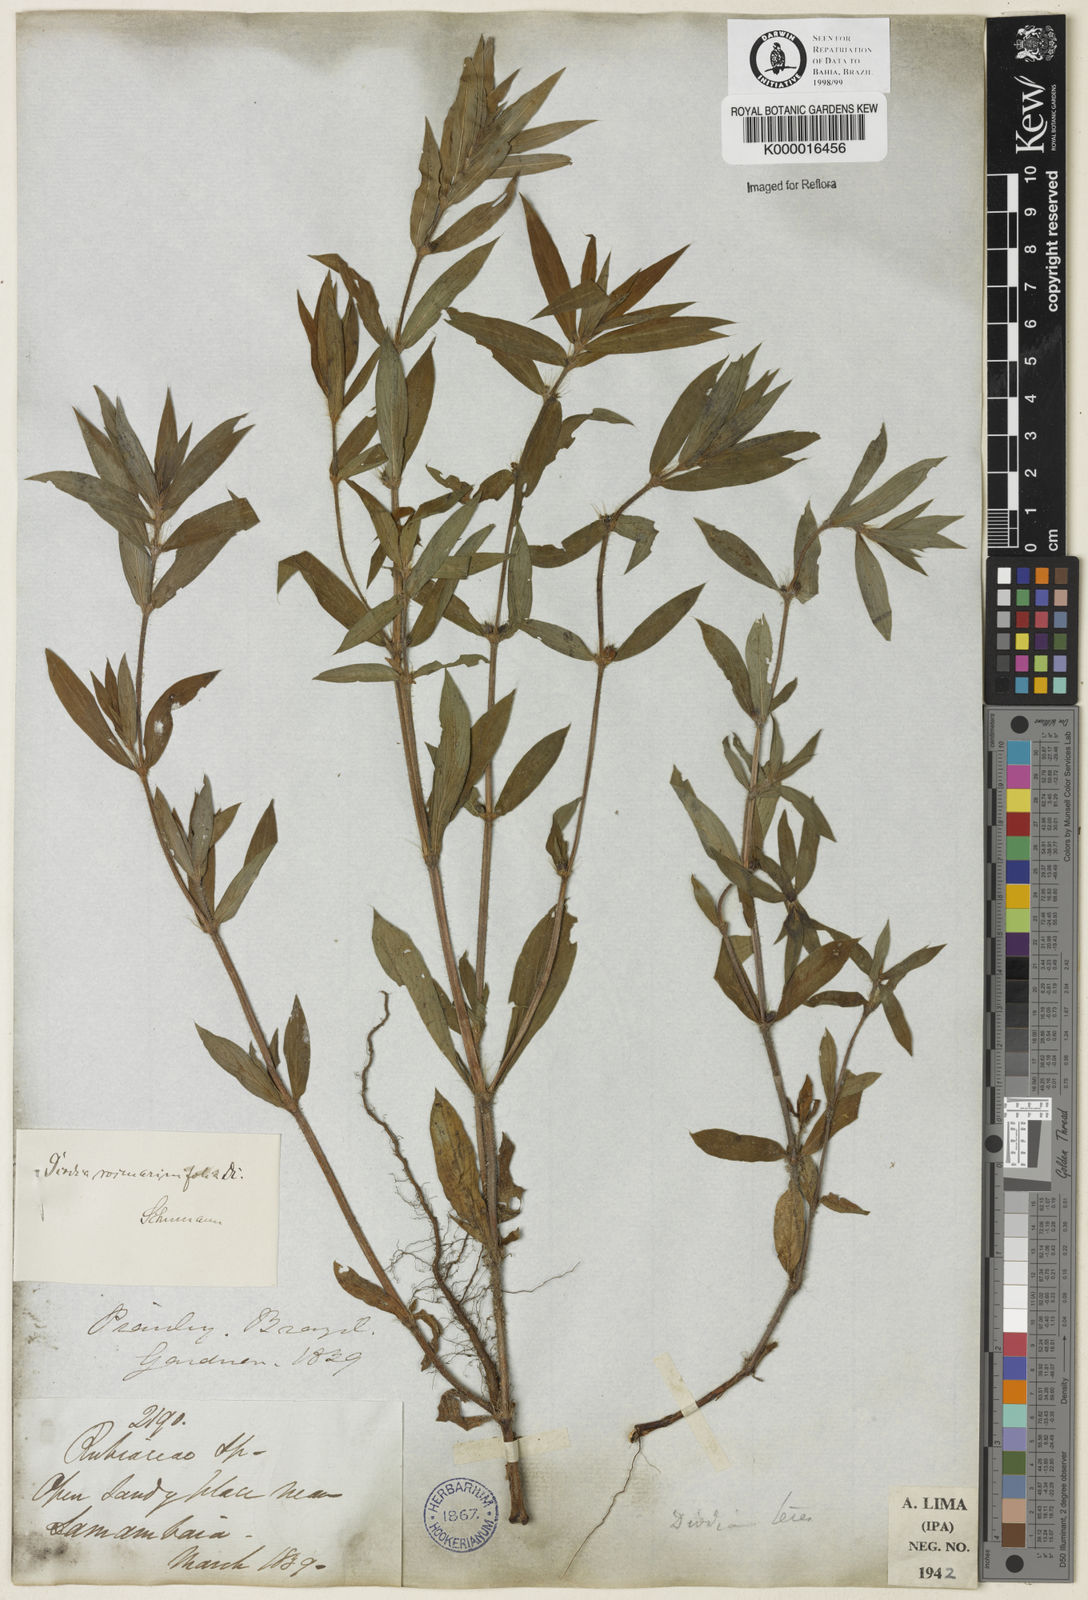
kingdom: Plantae
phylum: Tracheophyta
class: Magnoliopsida
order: Gentianales
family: Rubiaceae
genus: Hexasepalum
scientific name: Hexasepalum
